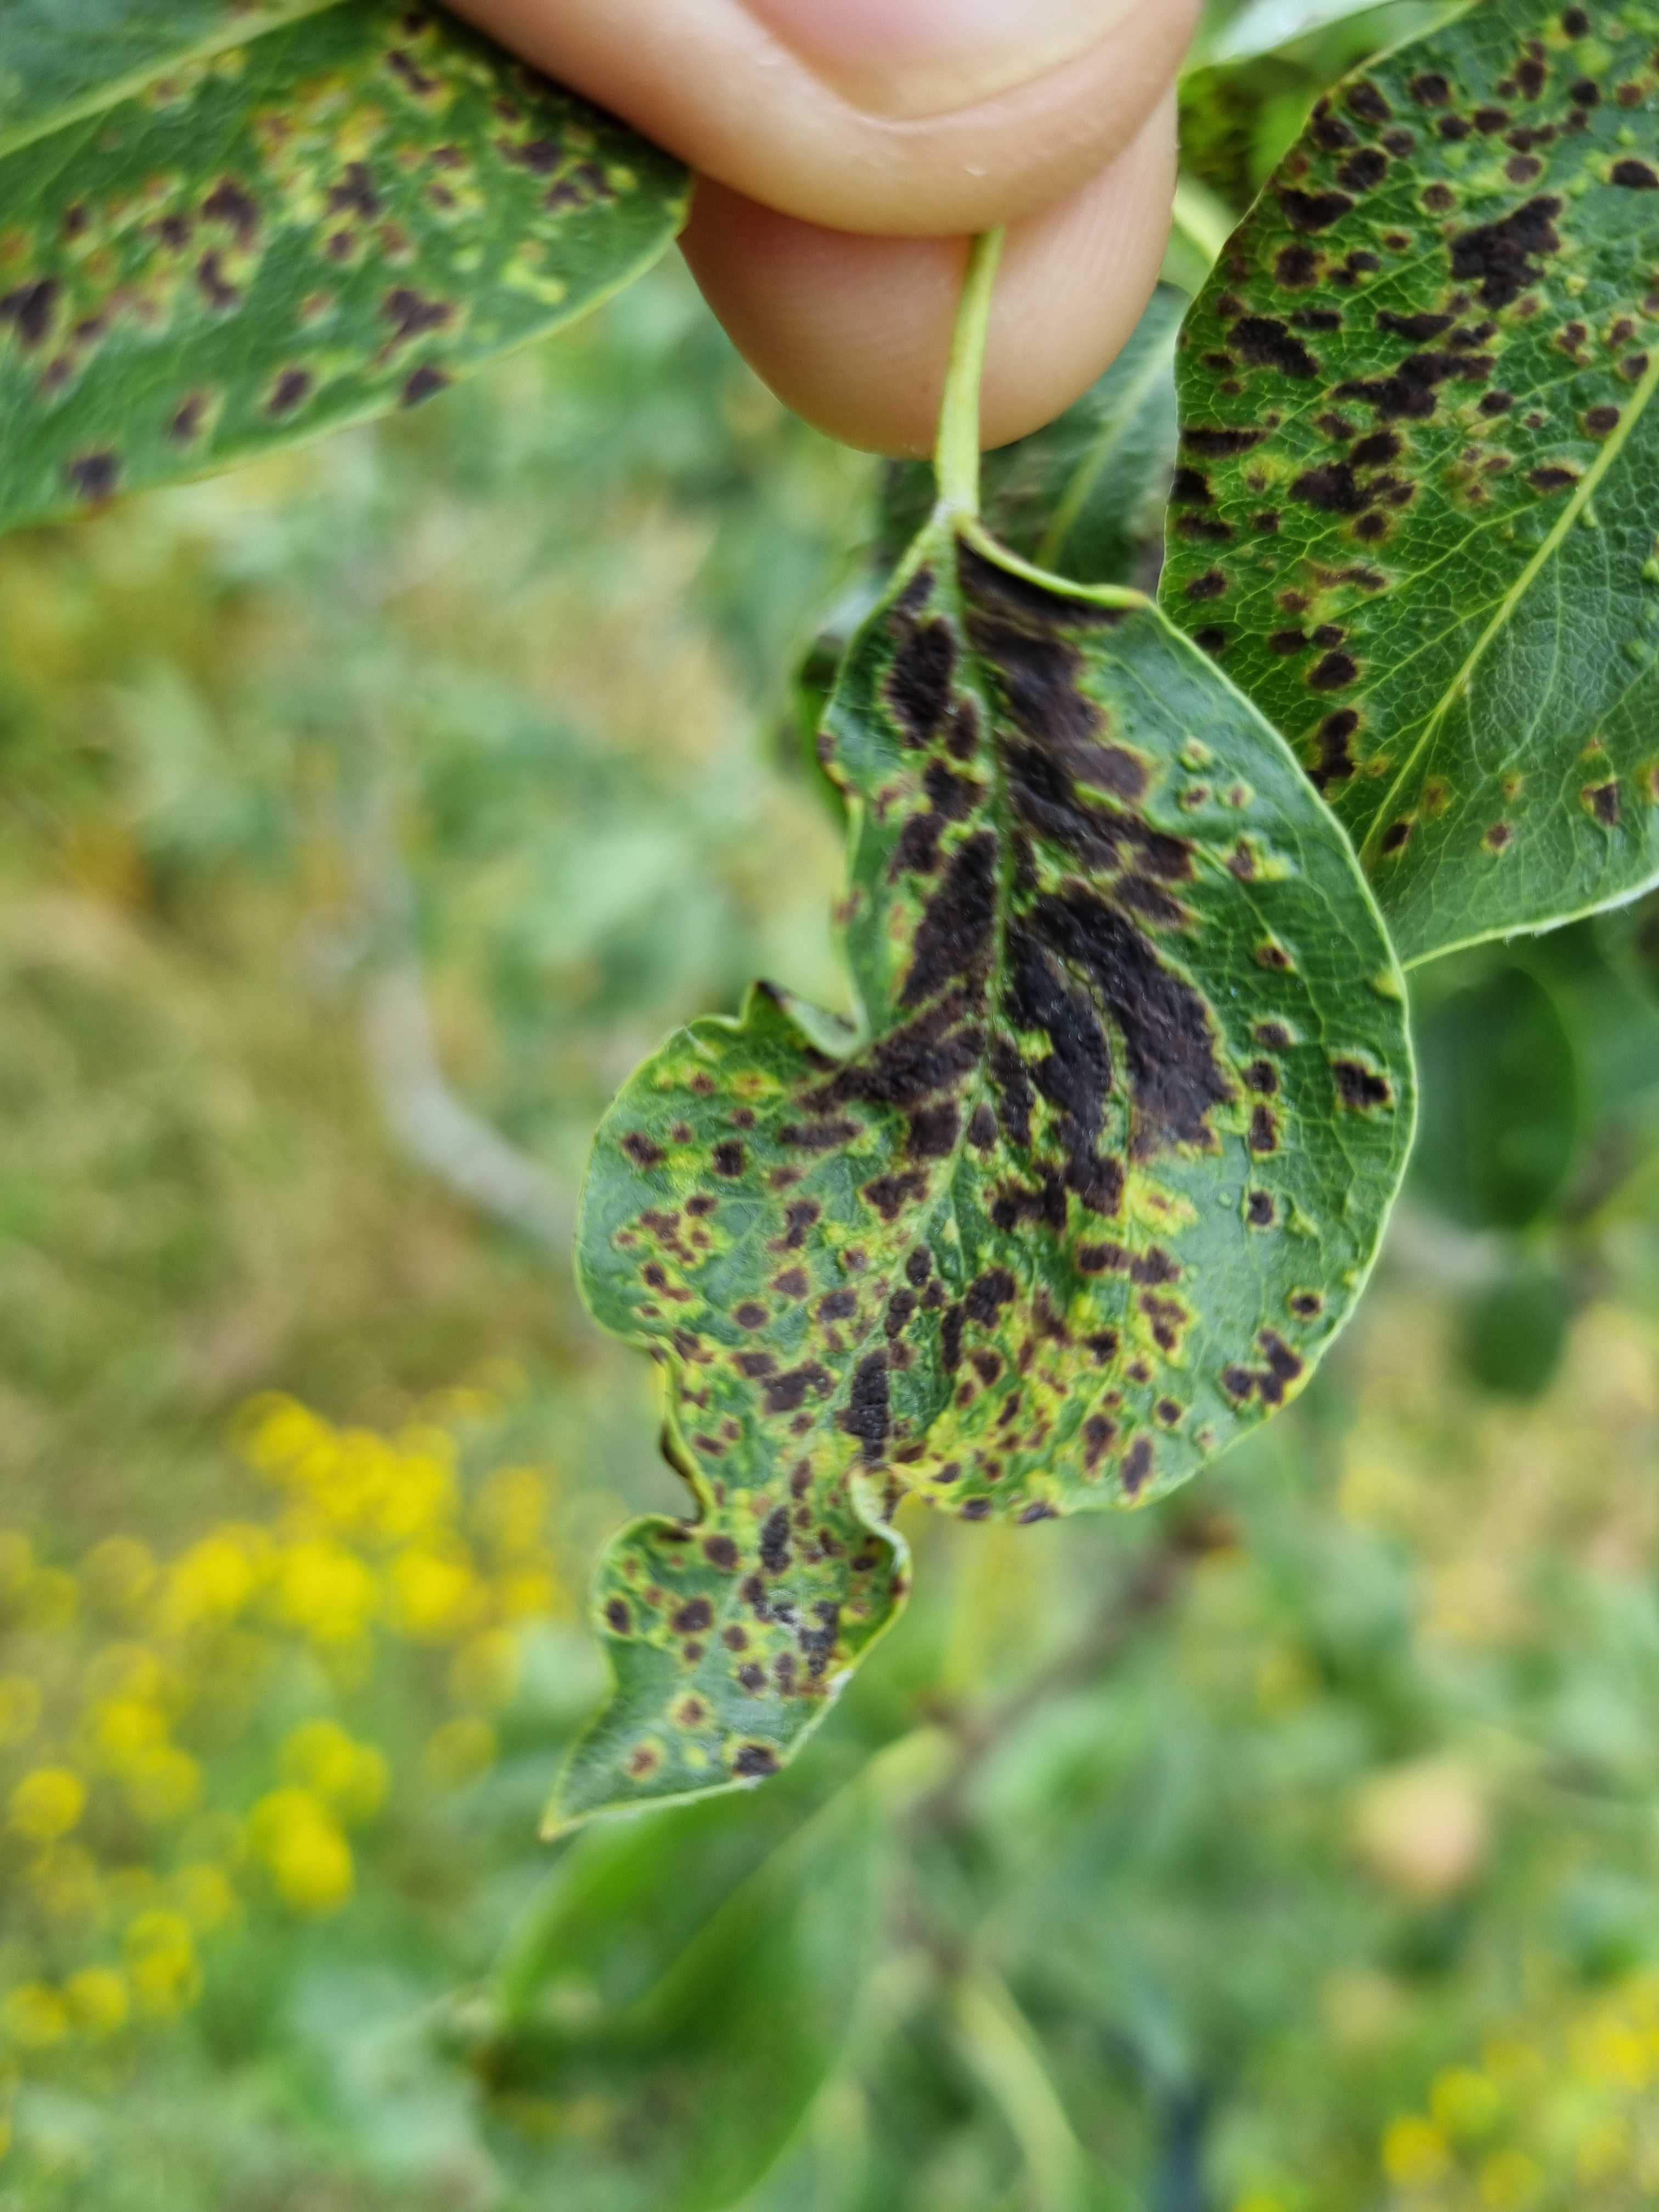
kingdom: Fungi
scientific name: Fungi
